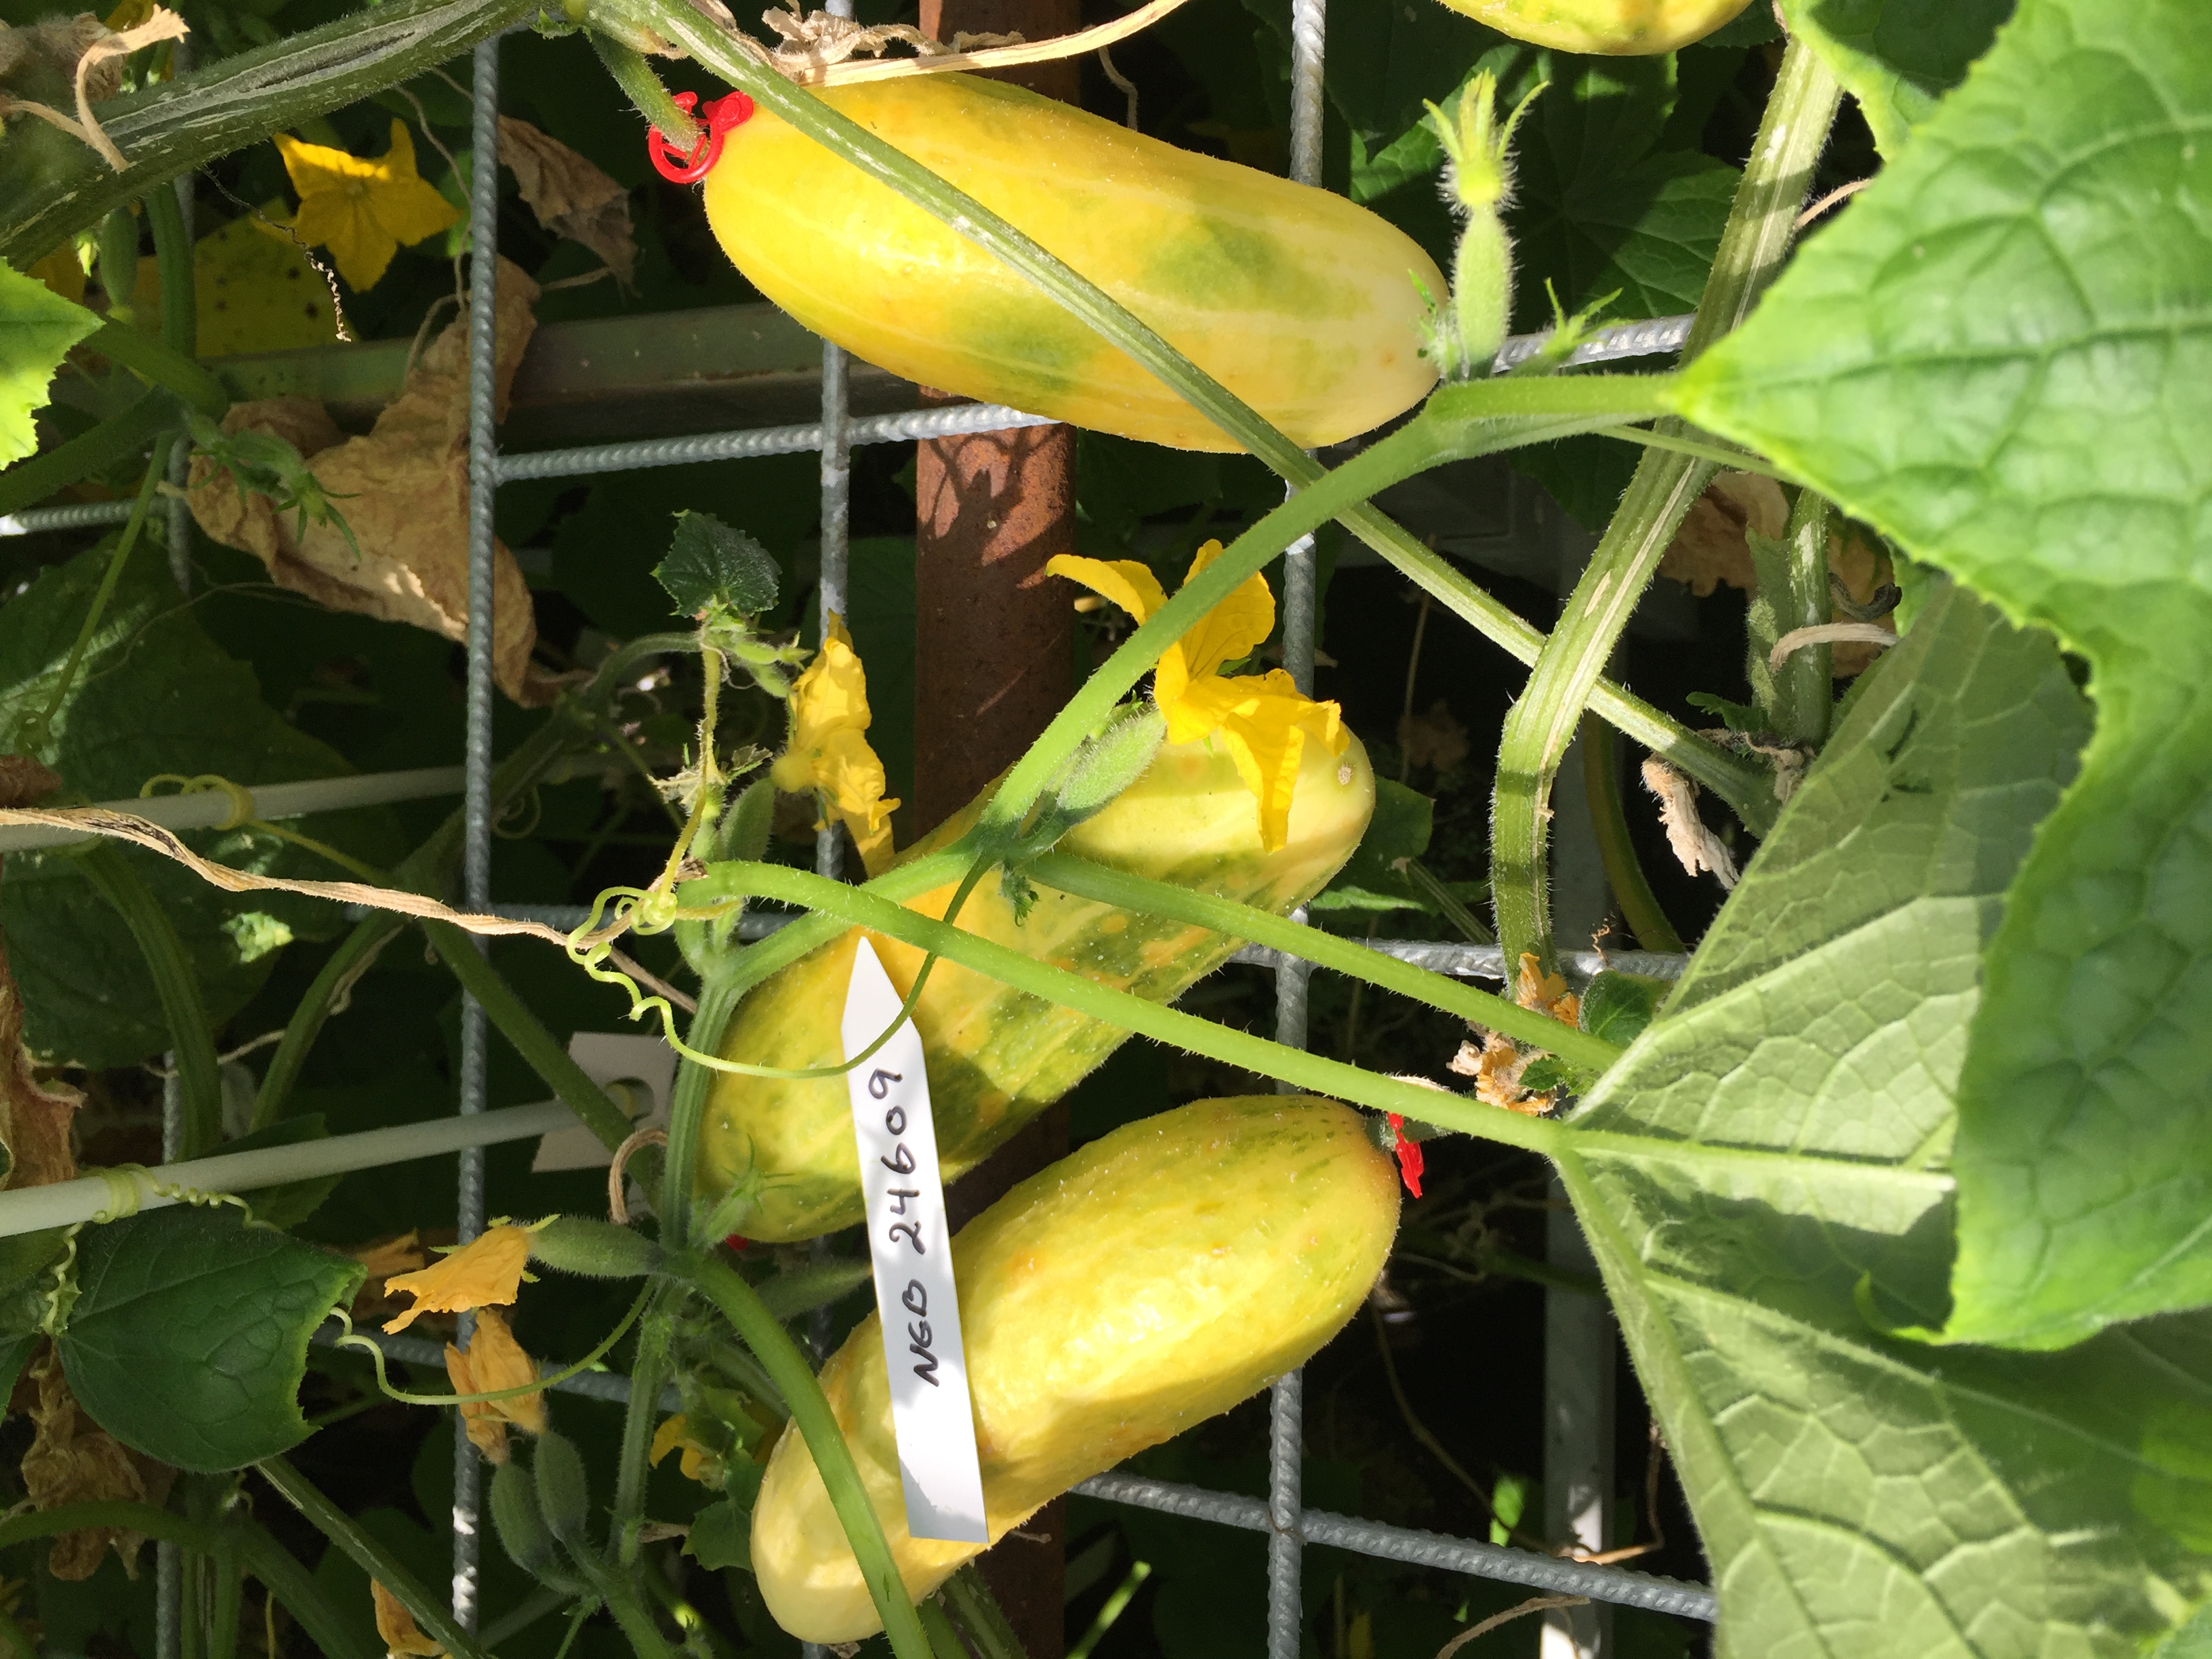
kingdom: Plantae
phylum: Tracheophyta
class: Magnoliopsida
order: Cucurbitales
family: Cucurbitaceae
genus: Cucumis
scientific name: Cucumis sativus
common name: Cucumber
